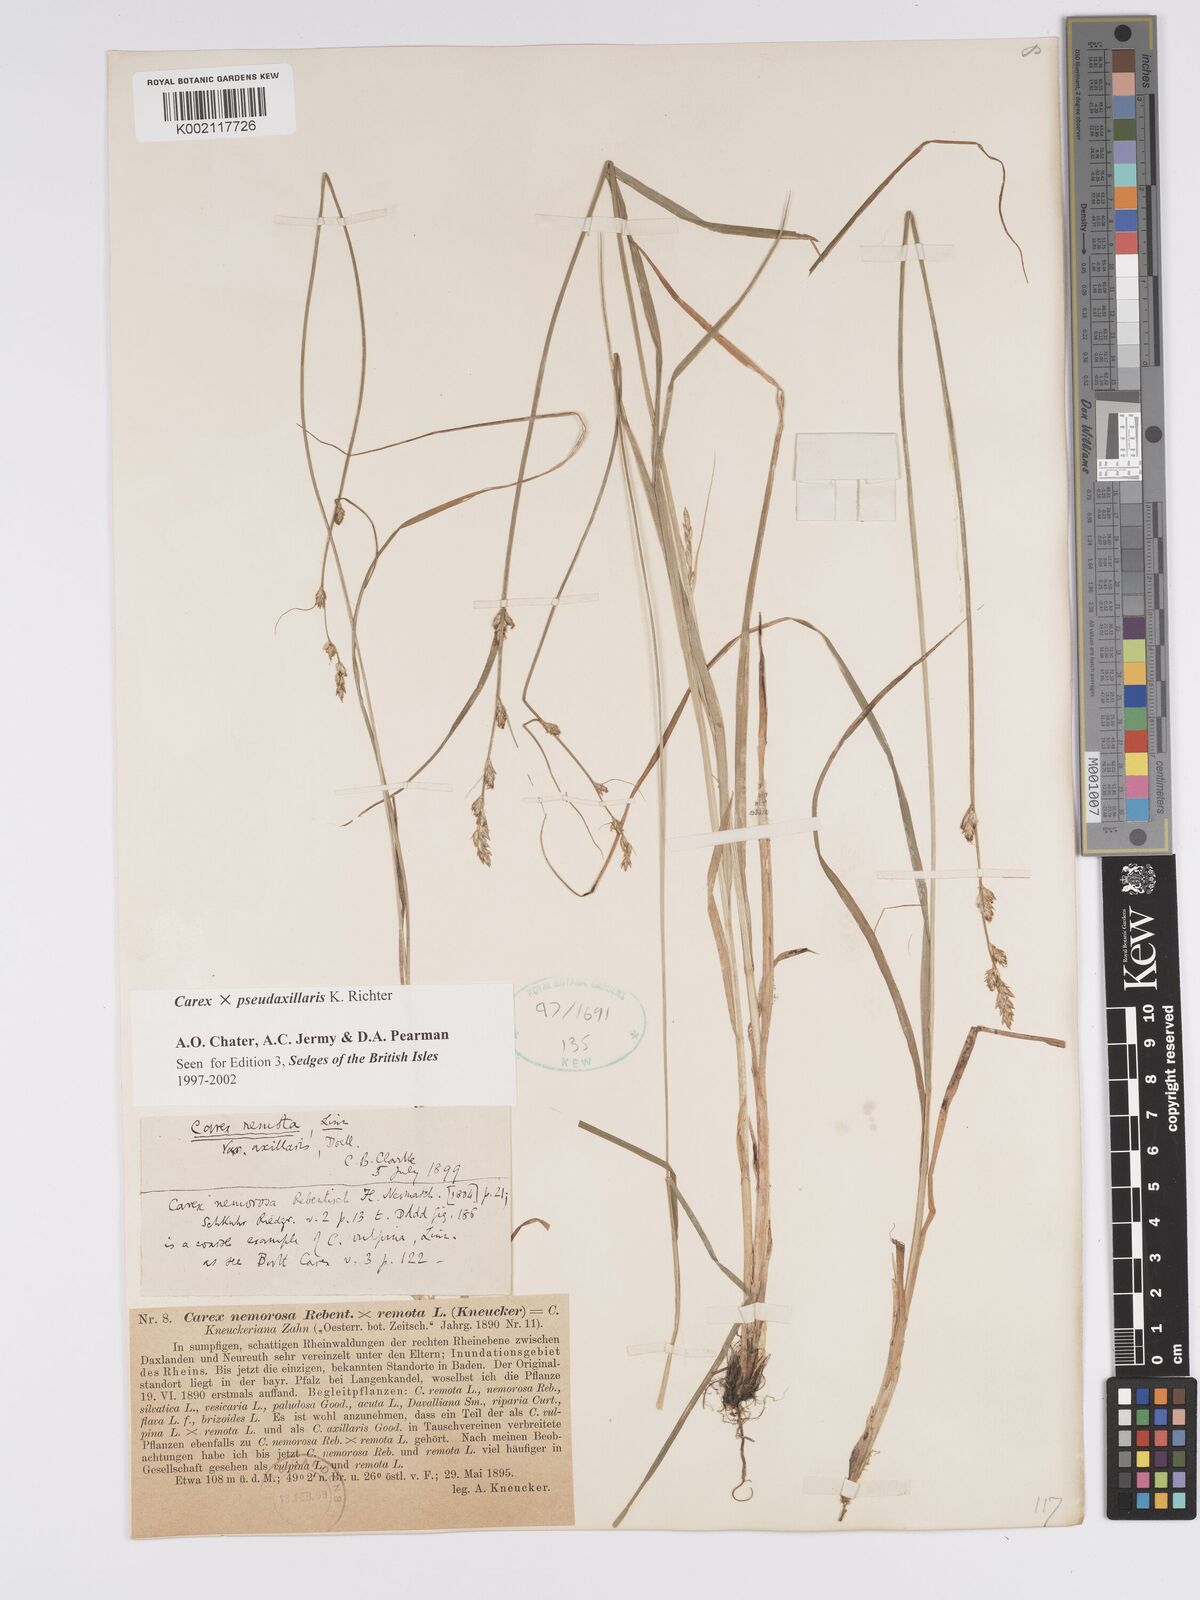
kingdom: Plantae
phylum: Tracheophyta
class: Liliopsida
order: Poales
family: Cyperaceae
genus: Carex
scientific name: Carex pseudoaxillaris
